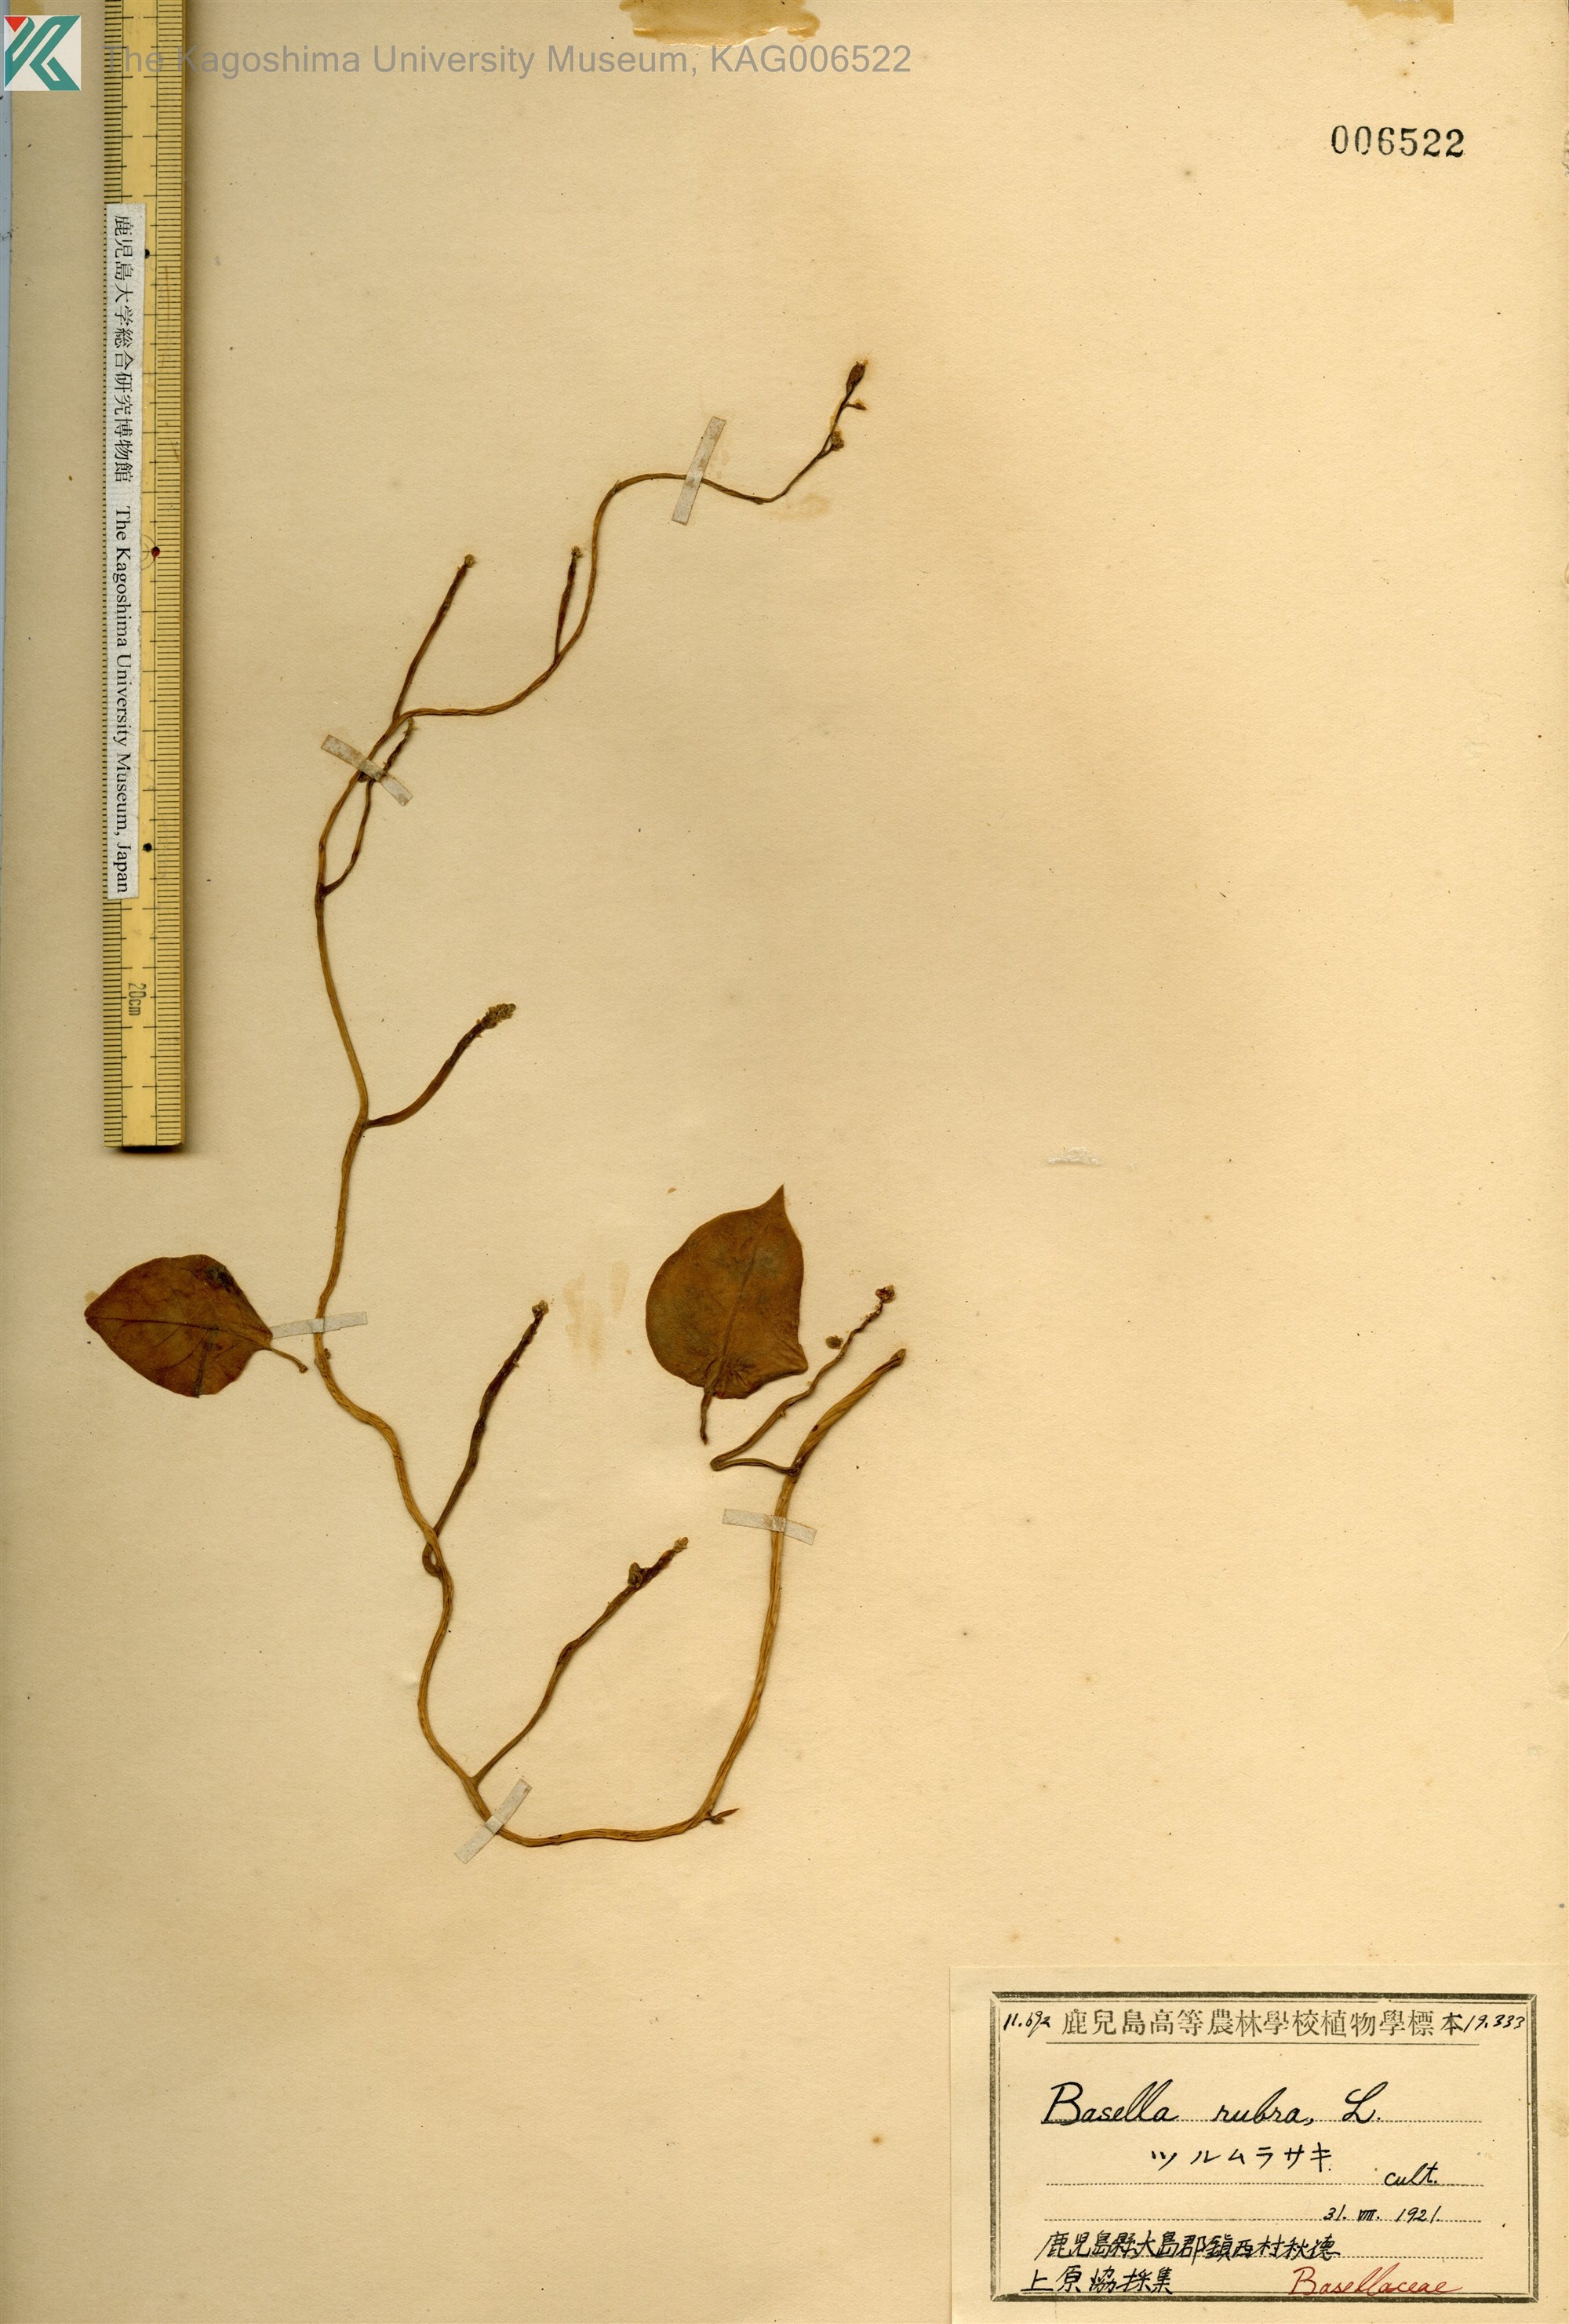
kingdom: Plantae
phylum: Tracheophyta
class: Magnoliopsida
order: Caryophyllales
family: Basellaceae
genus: Basella
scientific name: Basella alba
